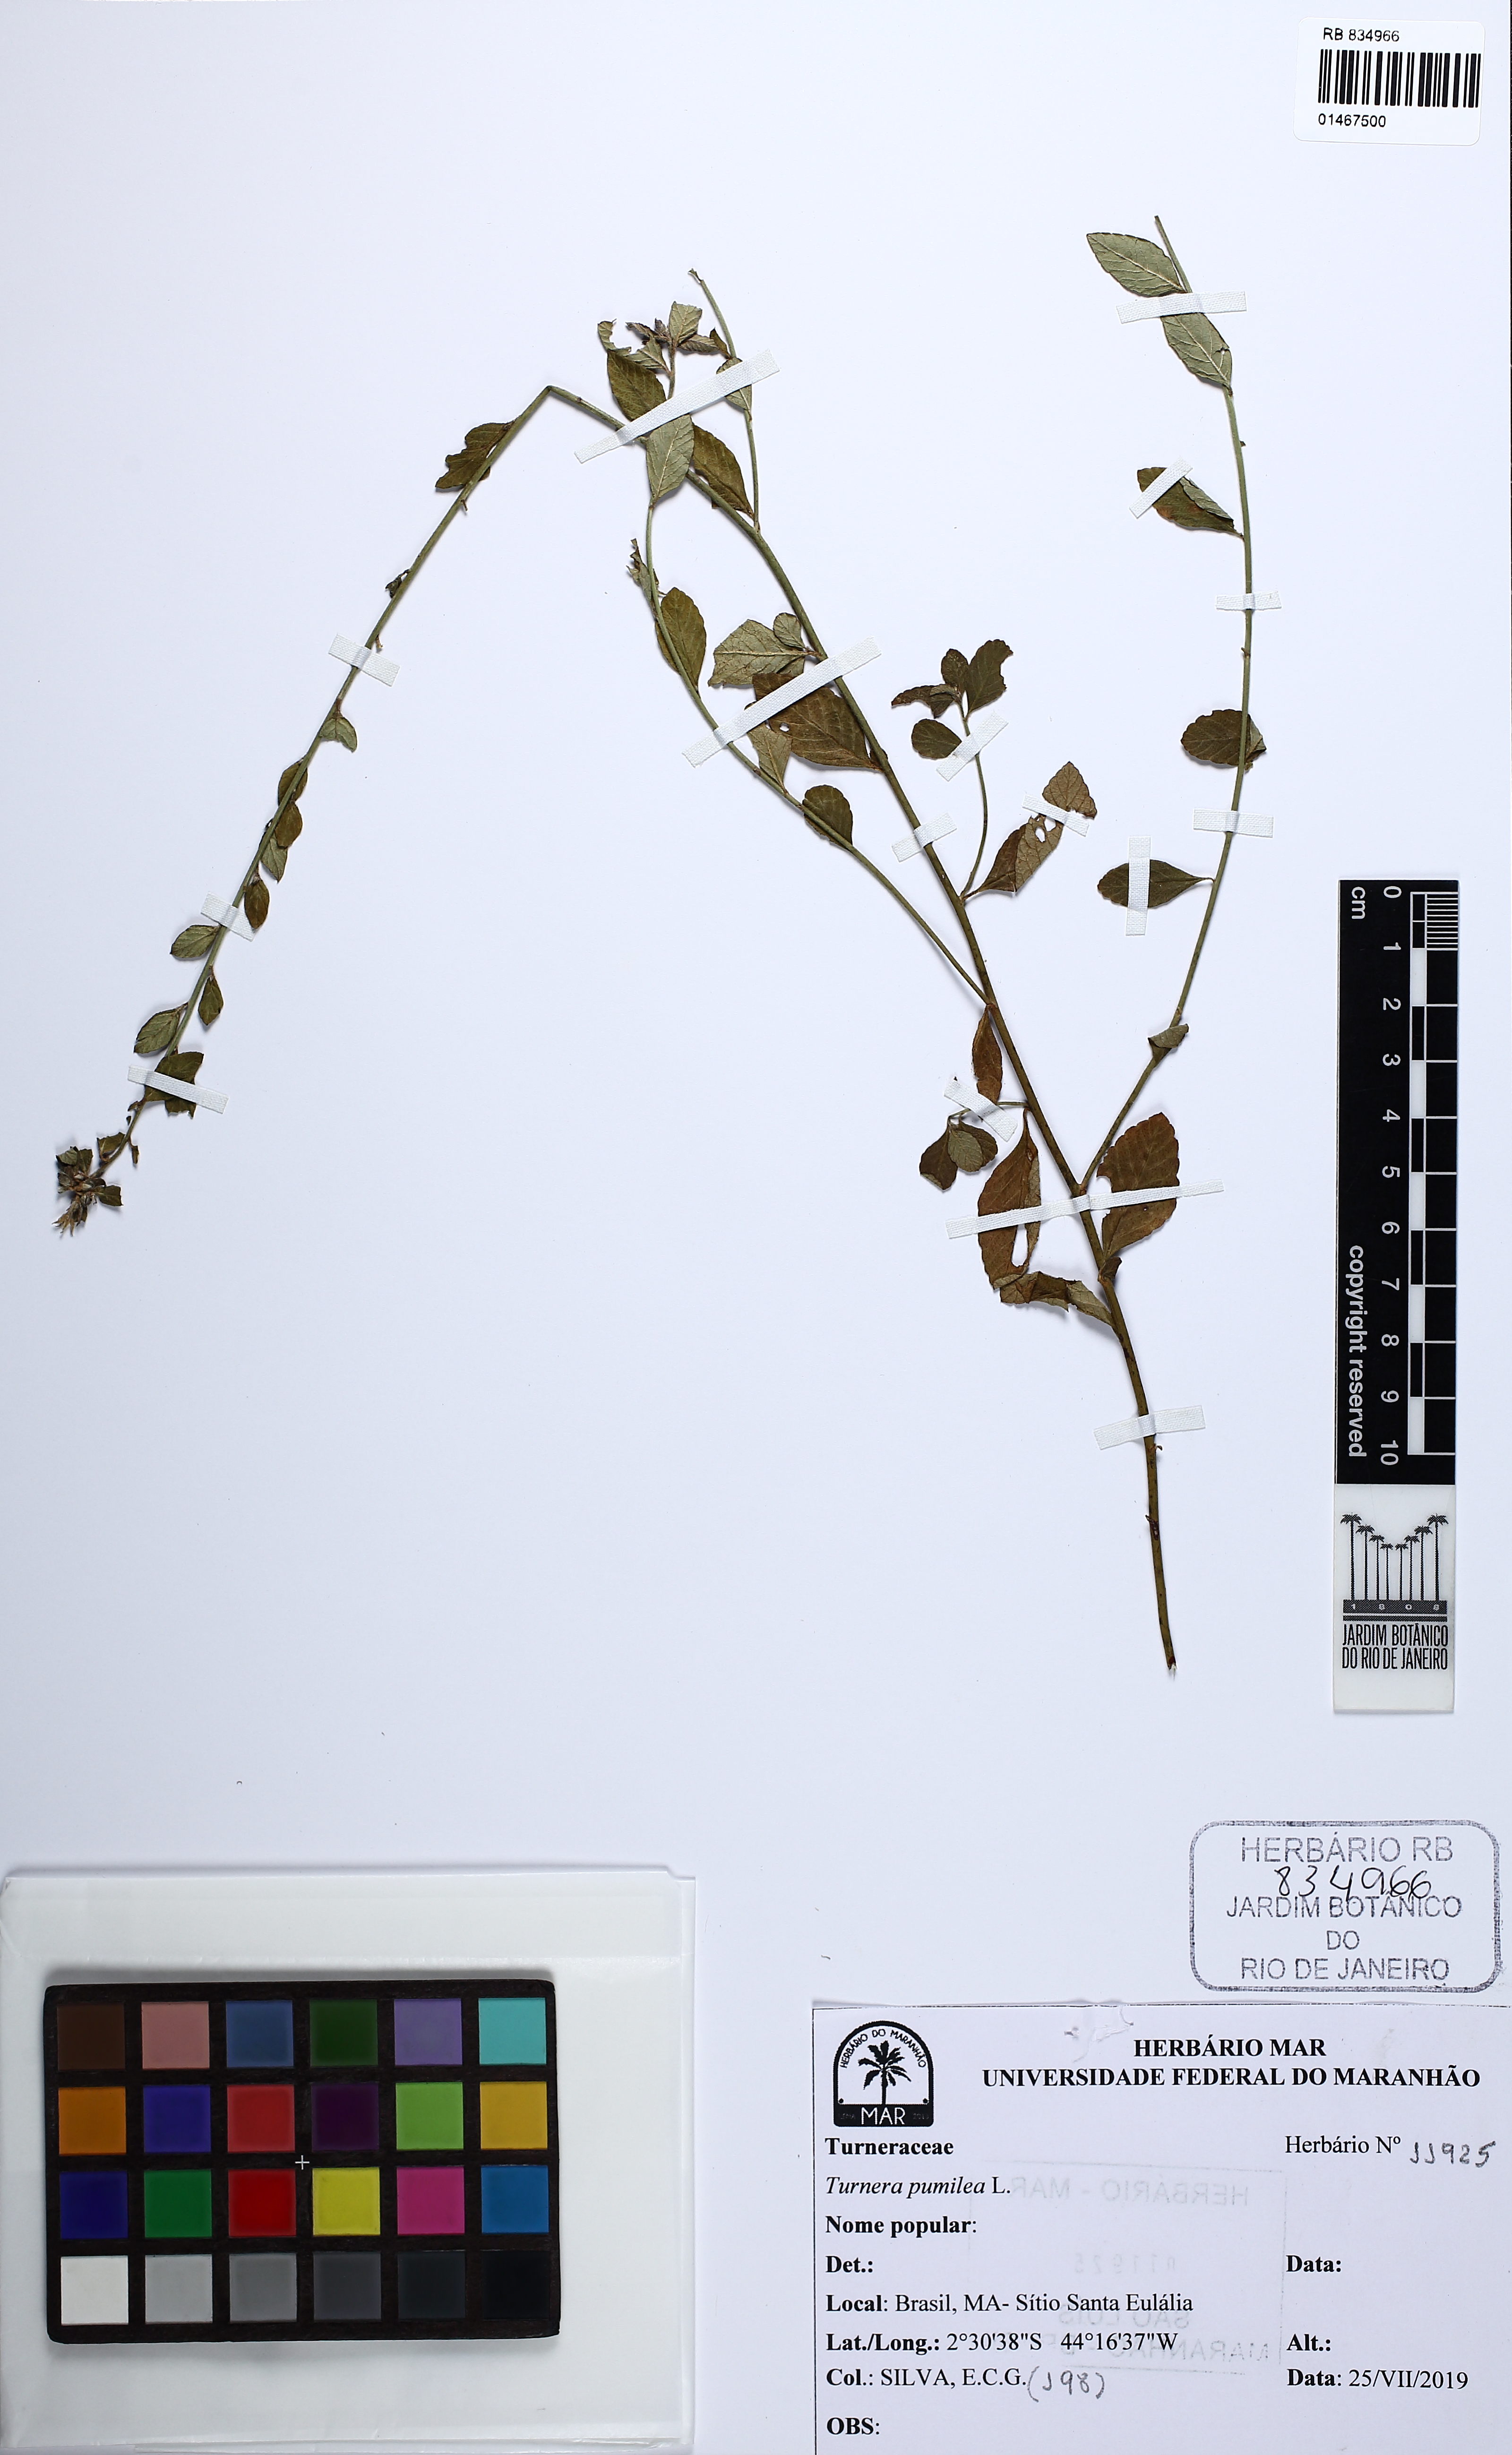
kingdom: Plantae
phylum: Tracheophyta
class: Magnoliopsida
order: Malpighiales
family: Turneraceae
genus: Turnera
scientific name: Turnera pumilea
